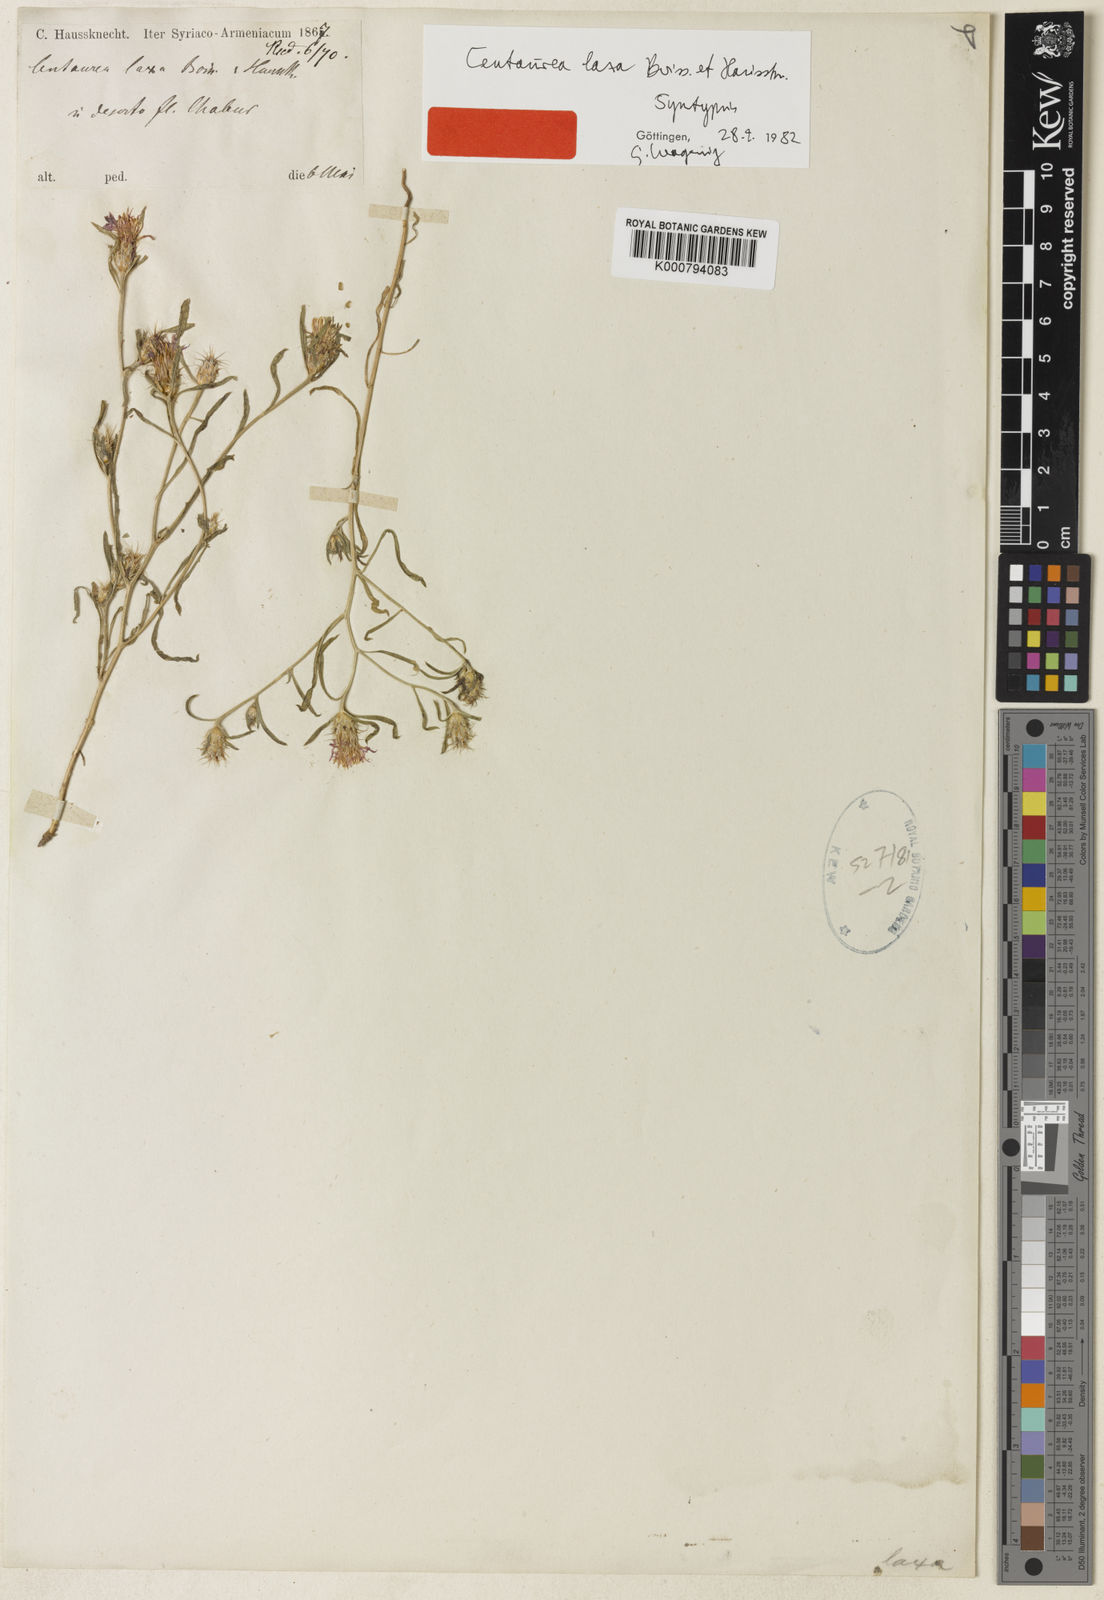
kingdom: Plantae
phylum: Tracheophyta
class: Magnoliopsida
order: Asterales
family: Asteraceae
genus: Centaurea
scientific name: Centaurea laxa
